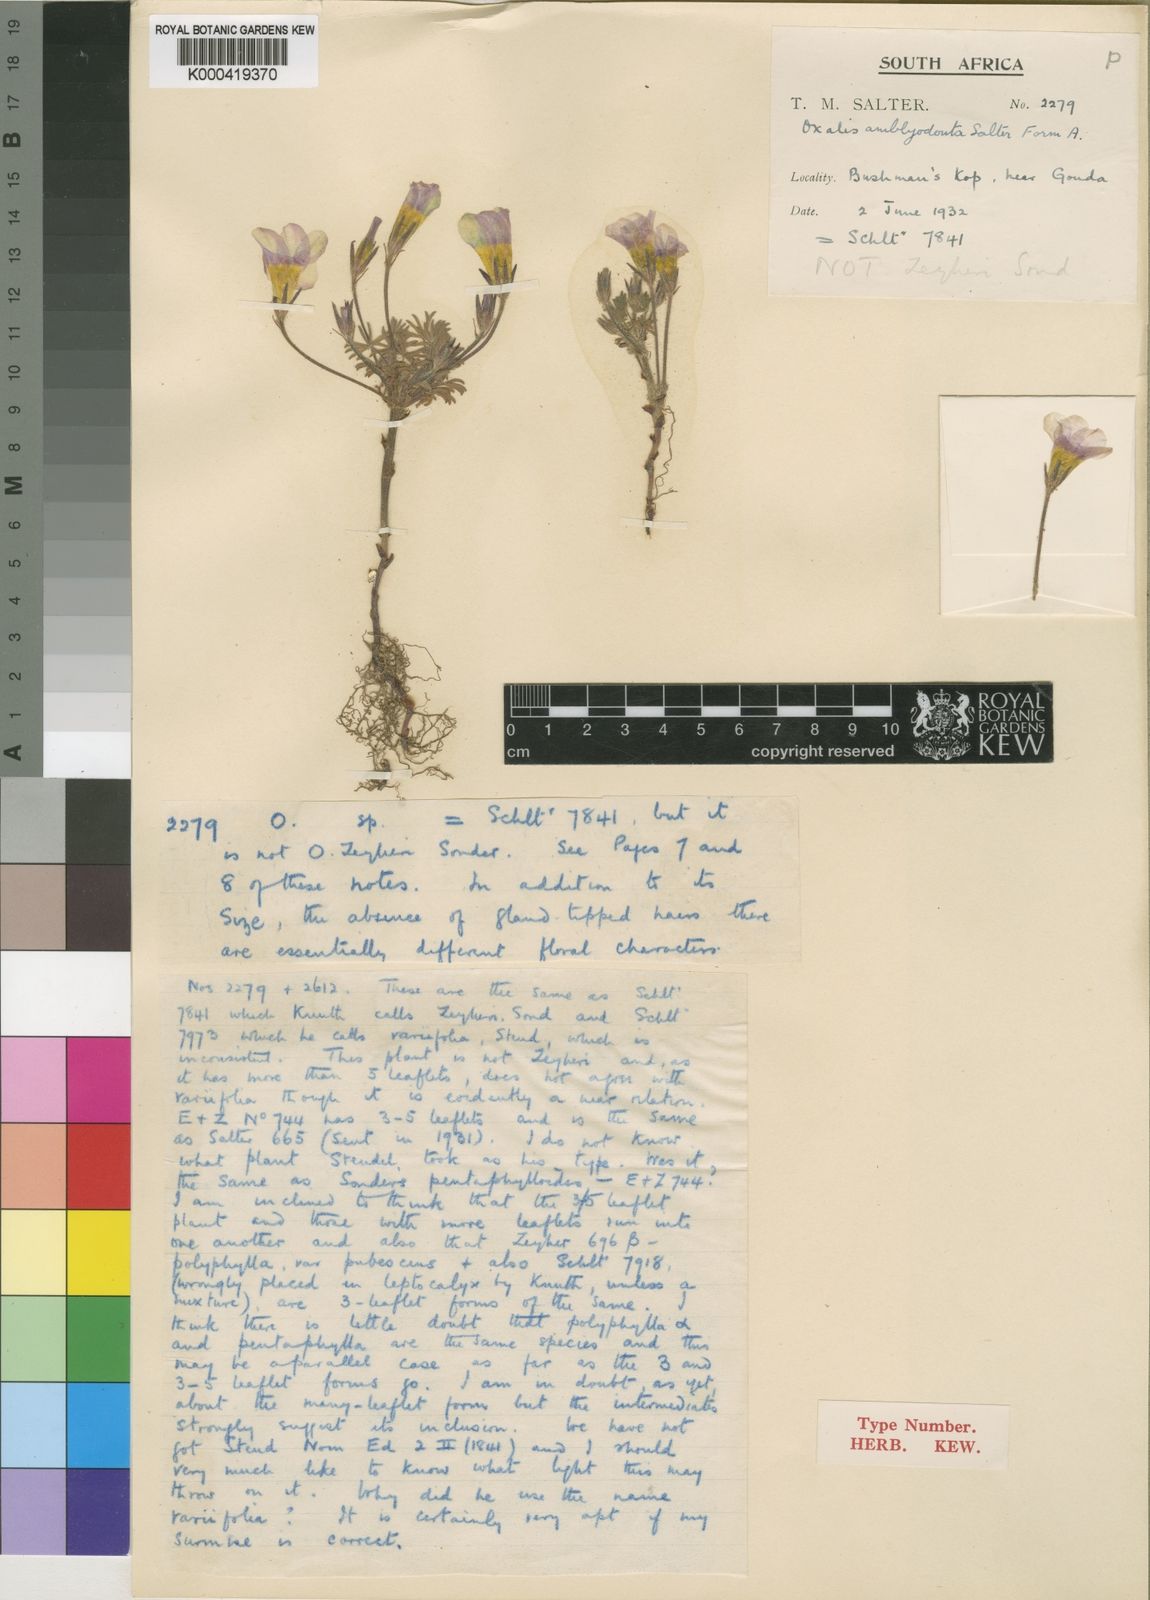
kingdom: Plantae
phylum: Tracheophyta
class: Magnoliopsida
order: Oxalidales
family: Oxalidaceae
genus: Oxalis
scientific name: Oxalis amblyodonta
